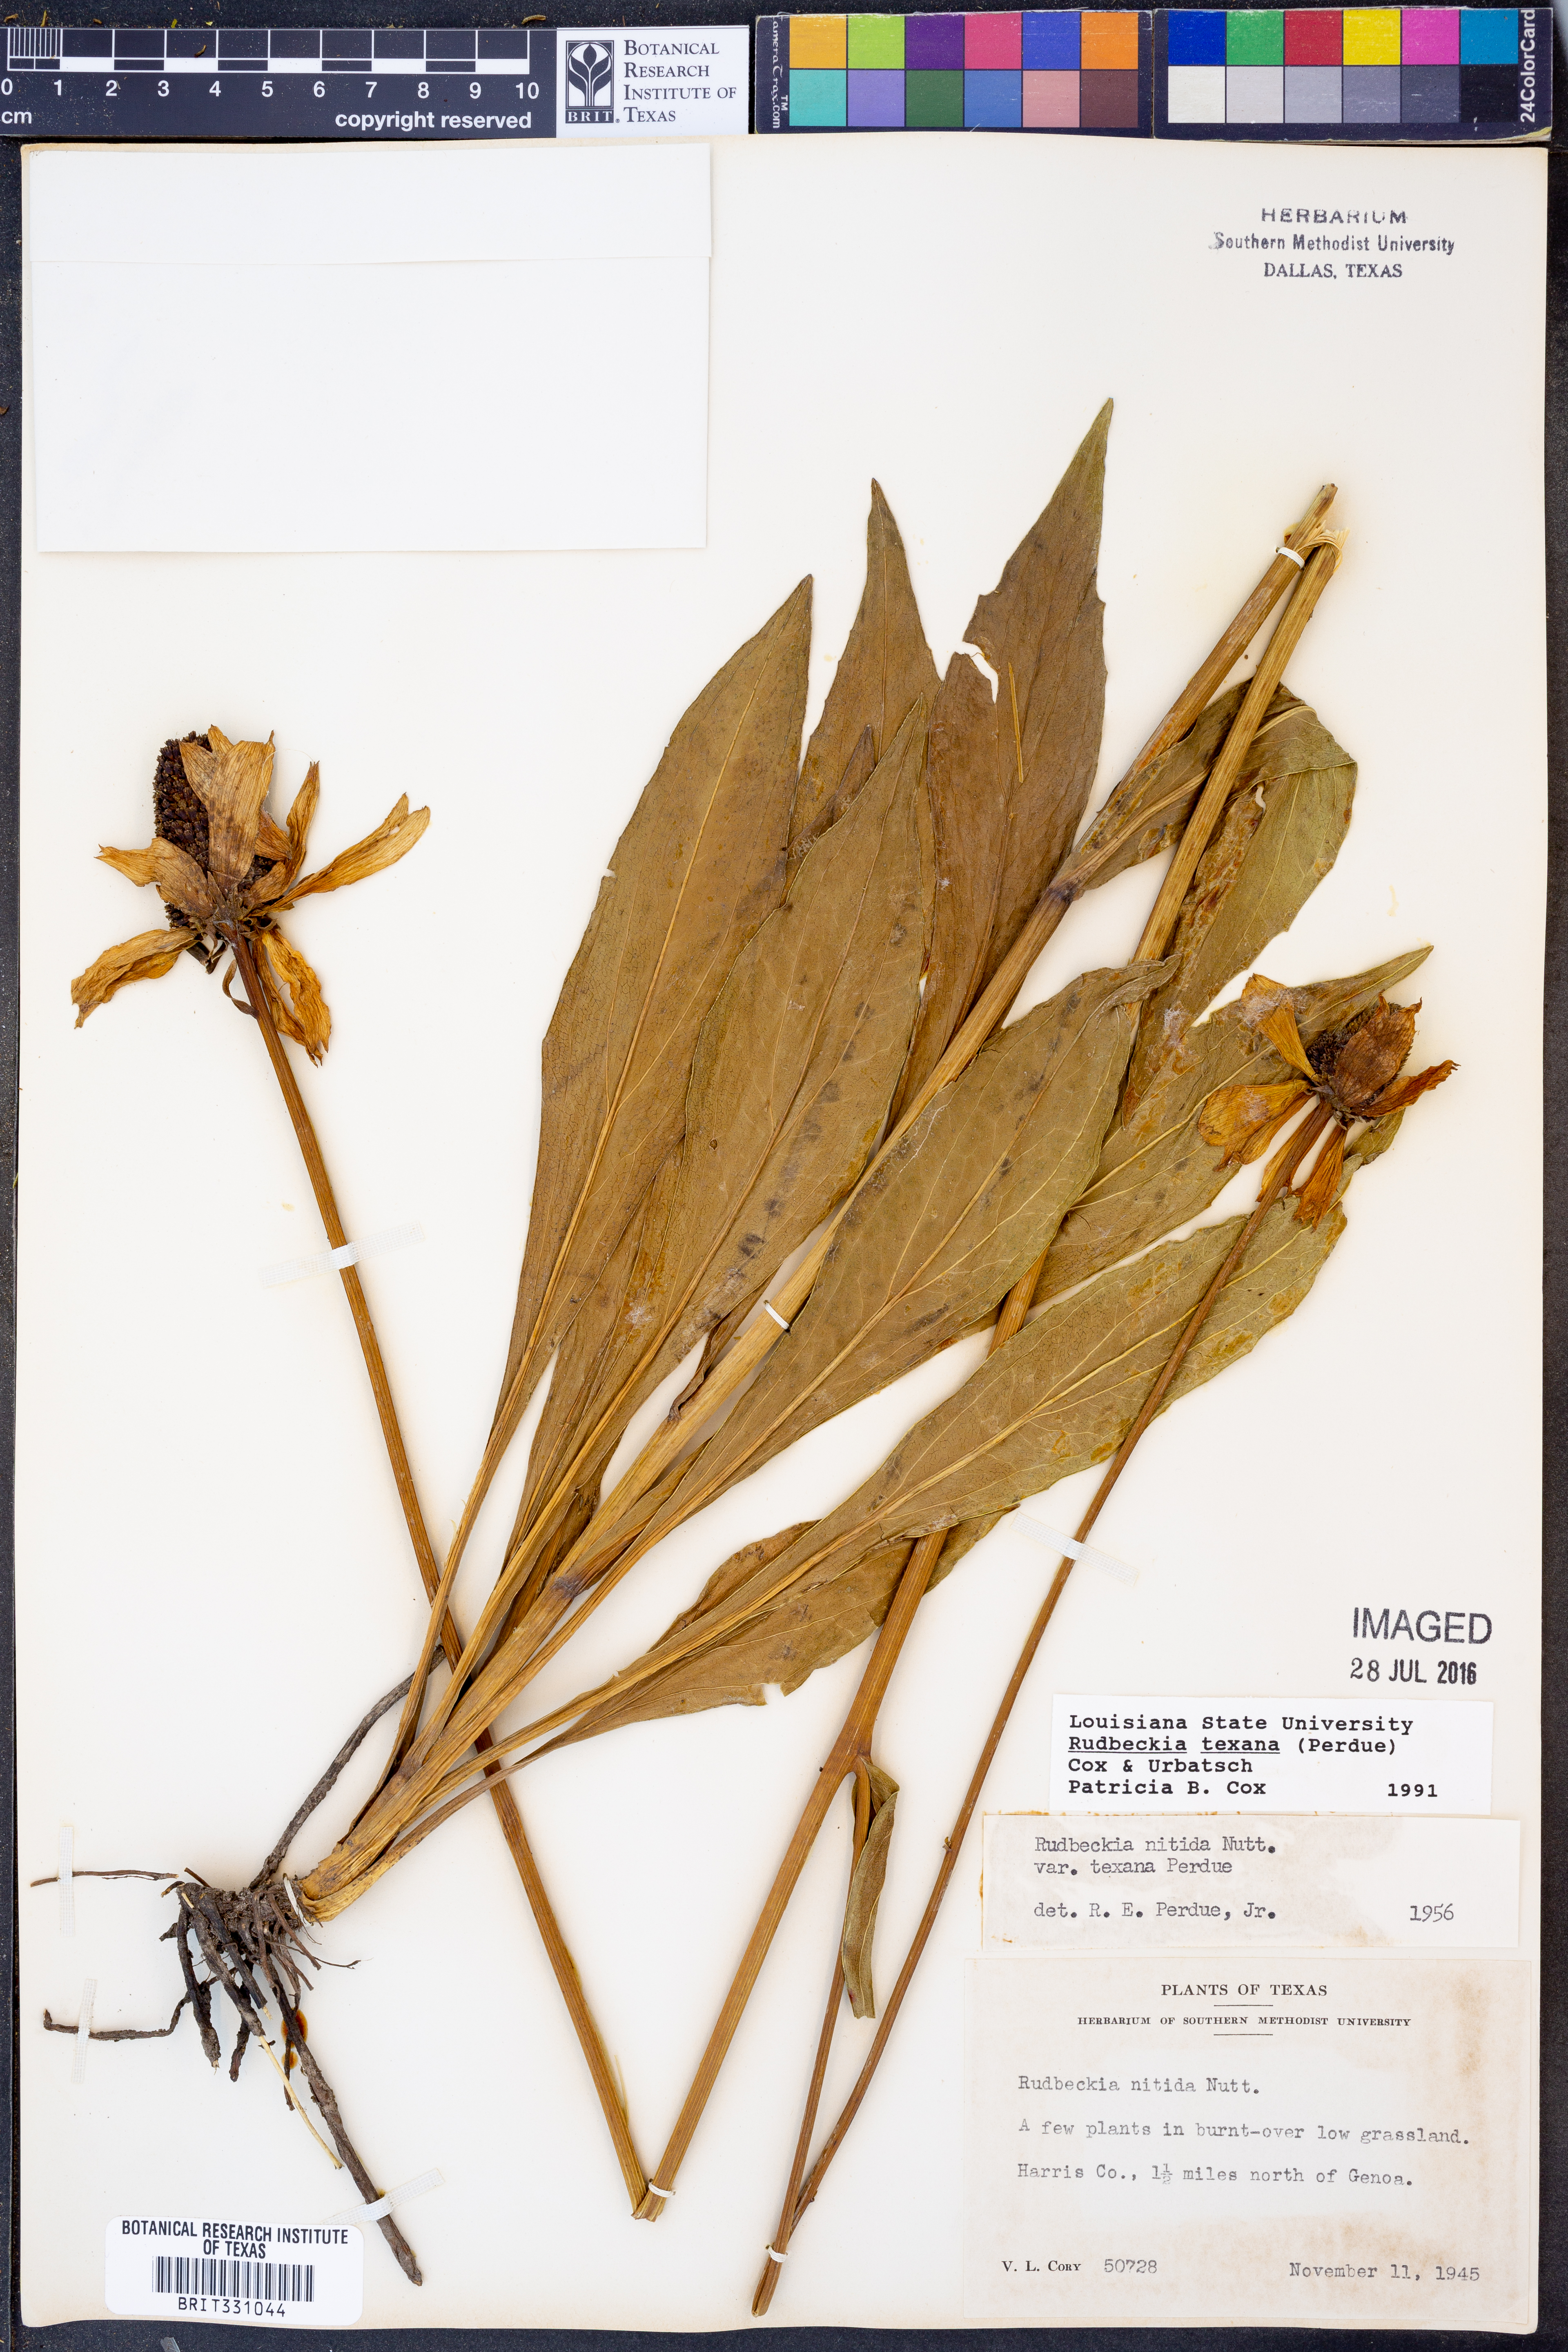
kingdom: Plantae
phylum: Tracheophyta
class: Magnoliopsida
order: Asterales
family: Asteraceae
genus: Rudbeckia
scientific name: Rudbeckia texana
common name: Texas coneflower
